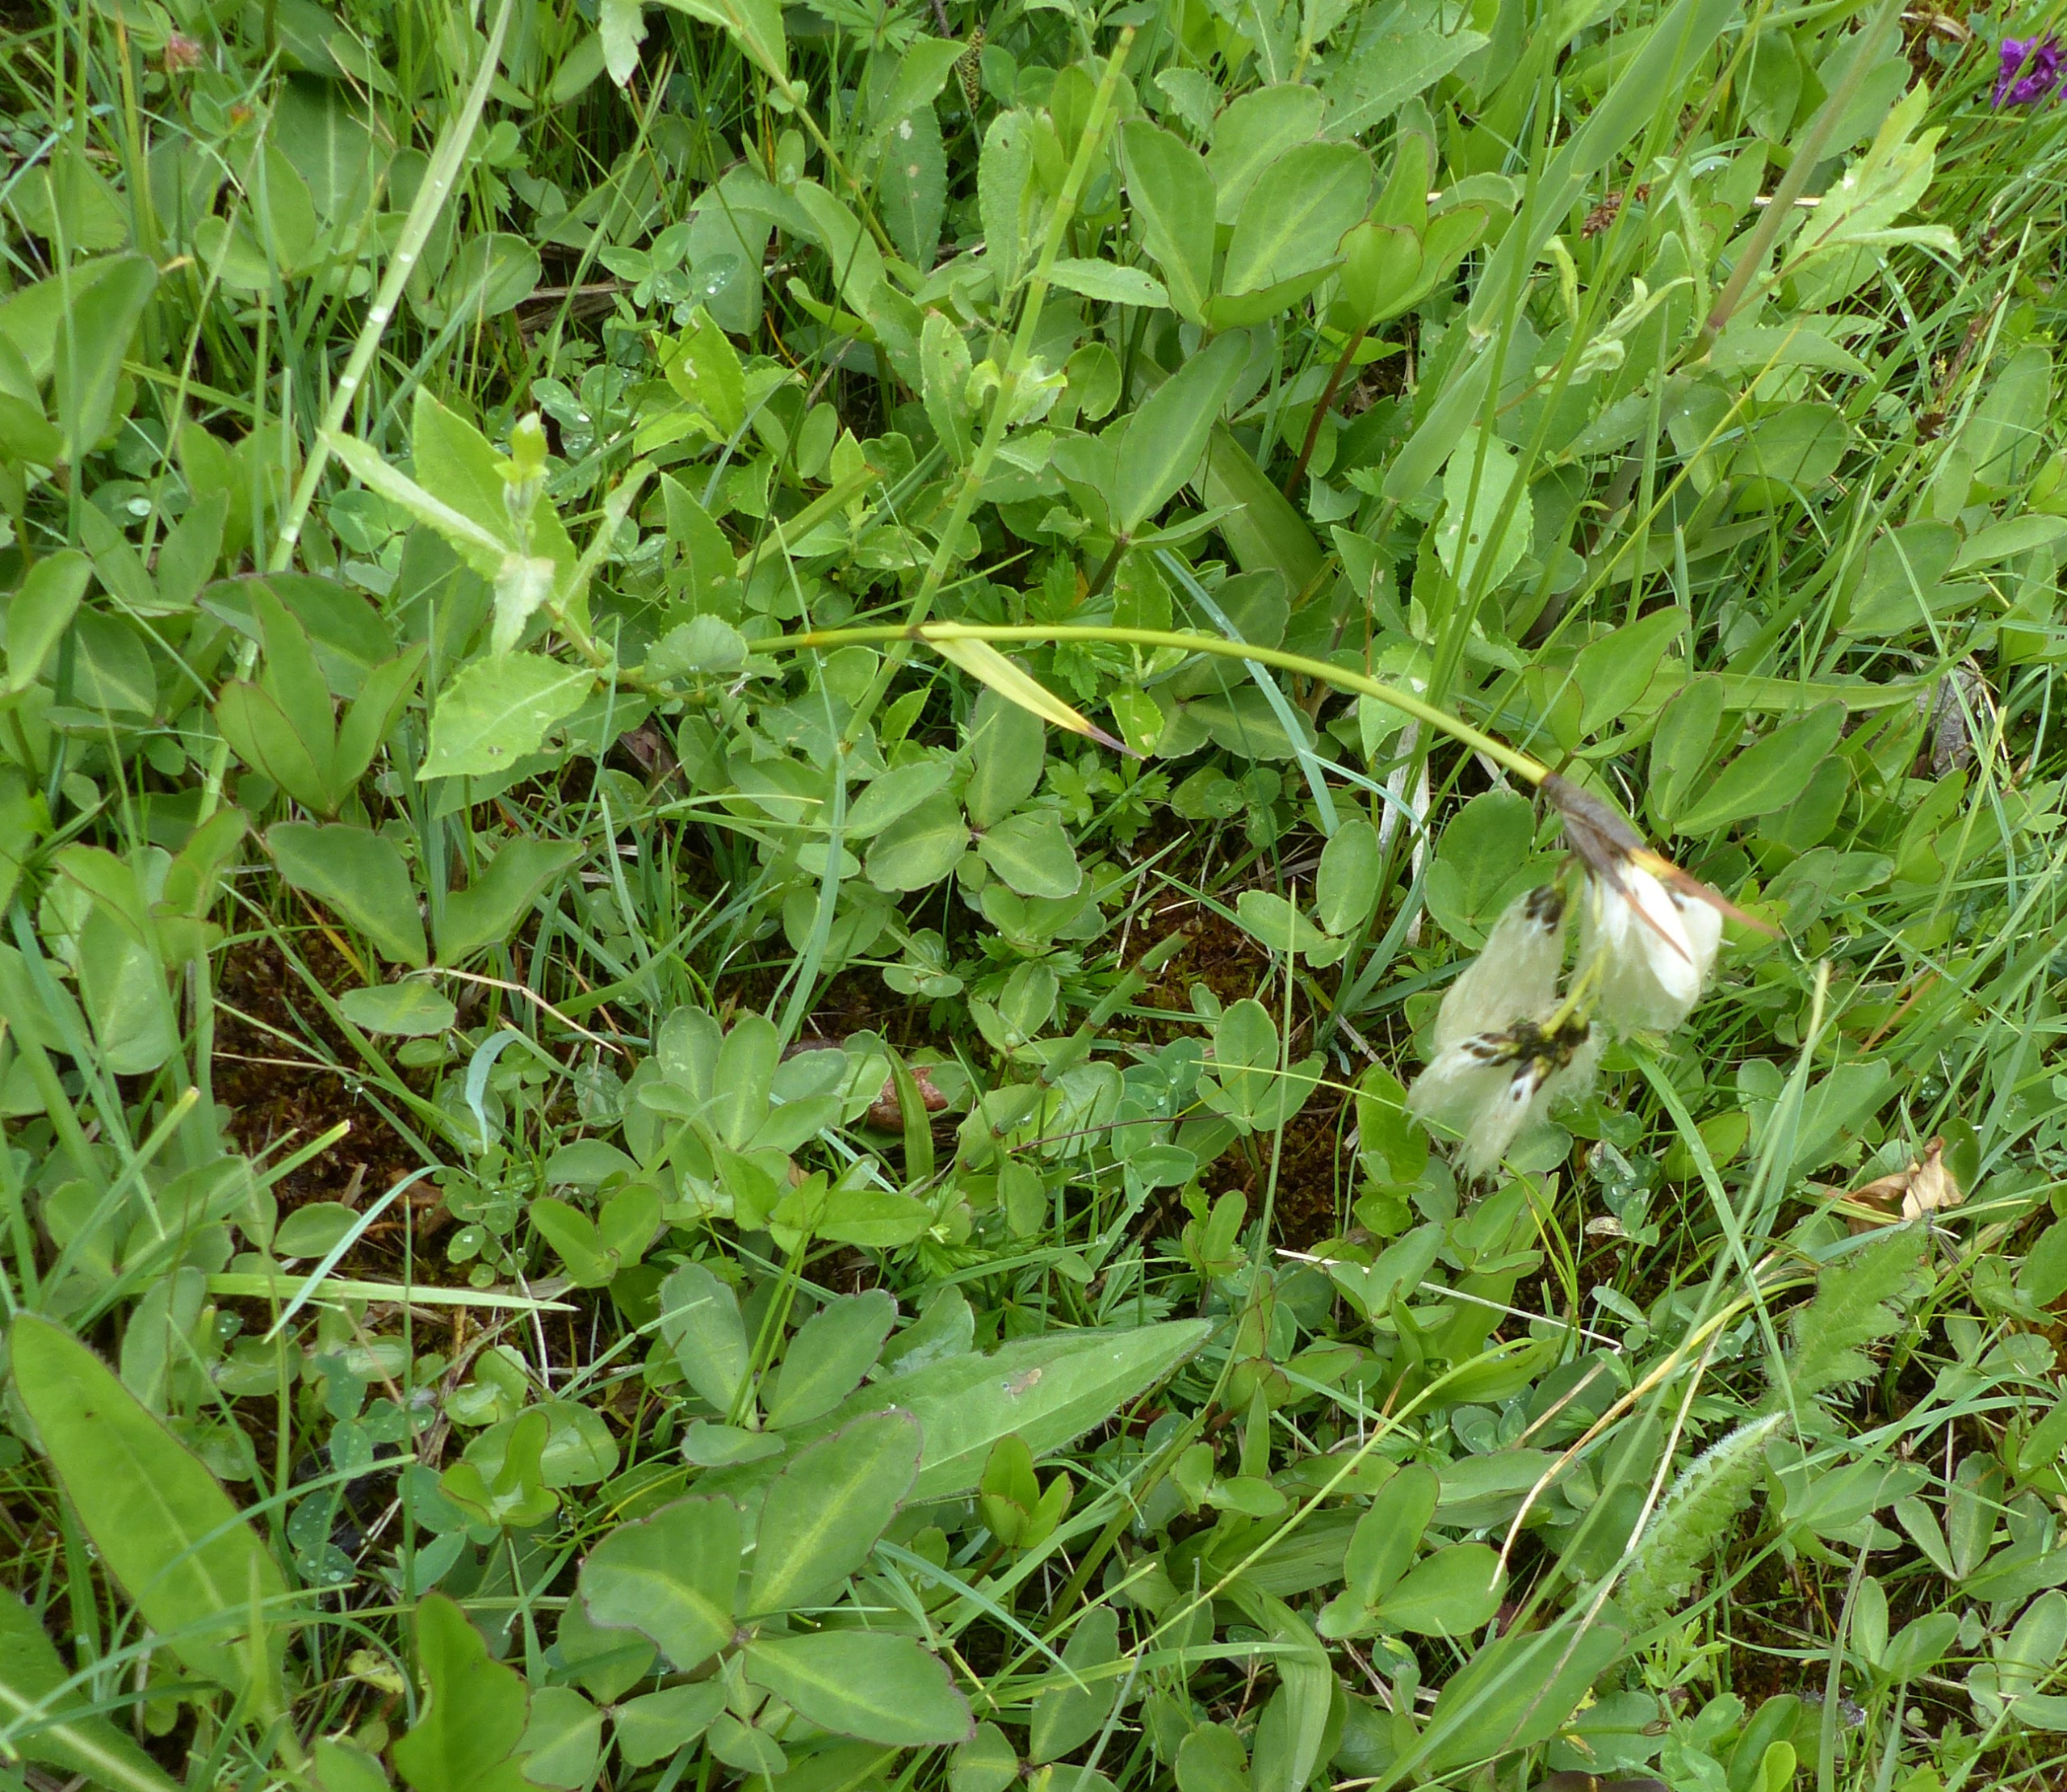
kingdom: Plantae
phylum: Tracheophyta
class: Liliopsida
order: Poales
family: Cyperaceae
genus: Eriophorum
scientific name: Eriophorum latifolium
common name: Bredbladet kæruld
